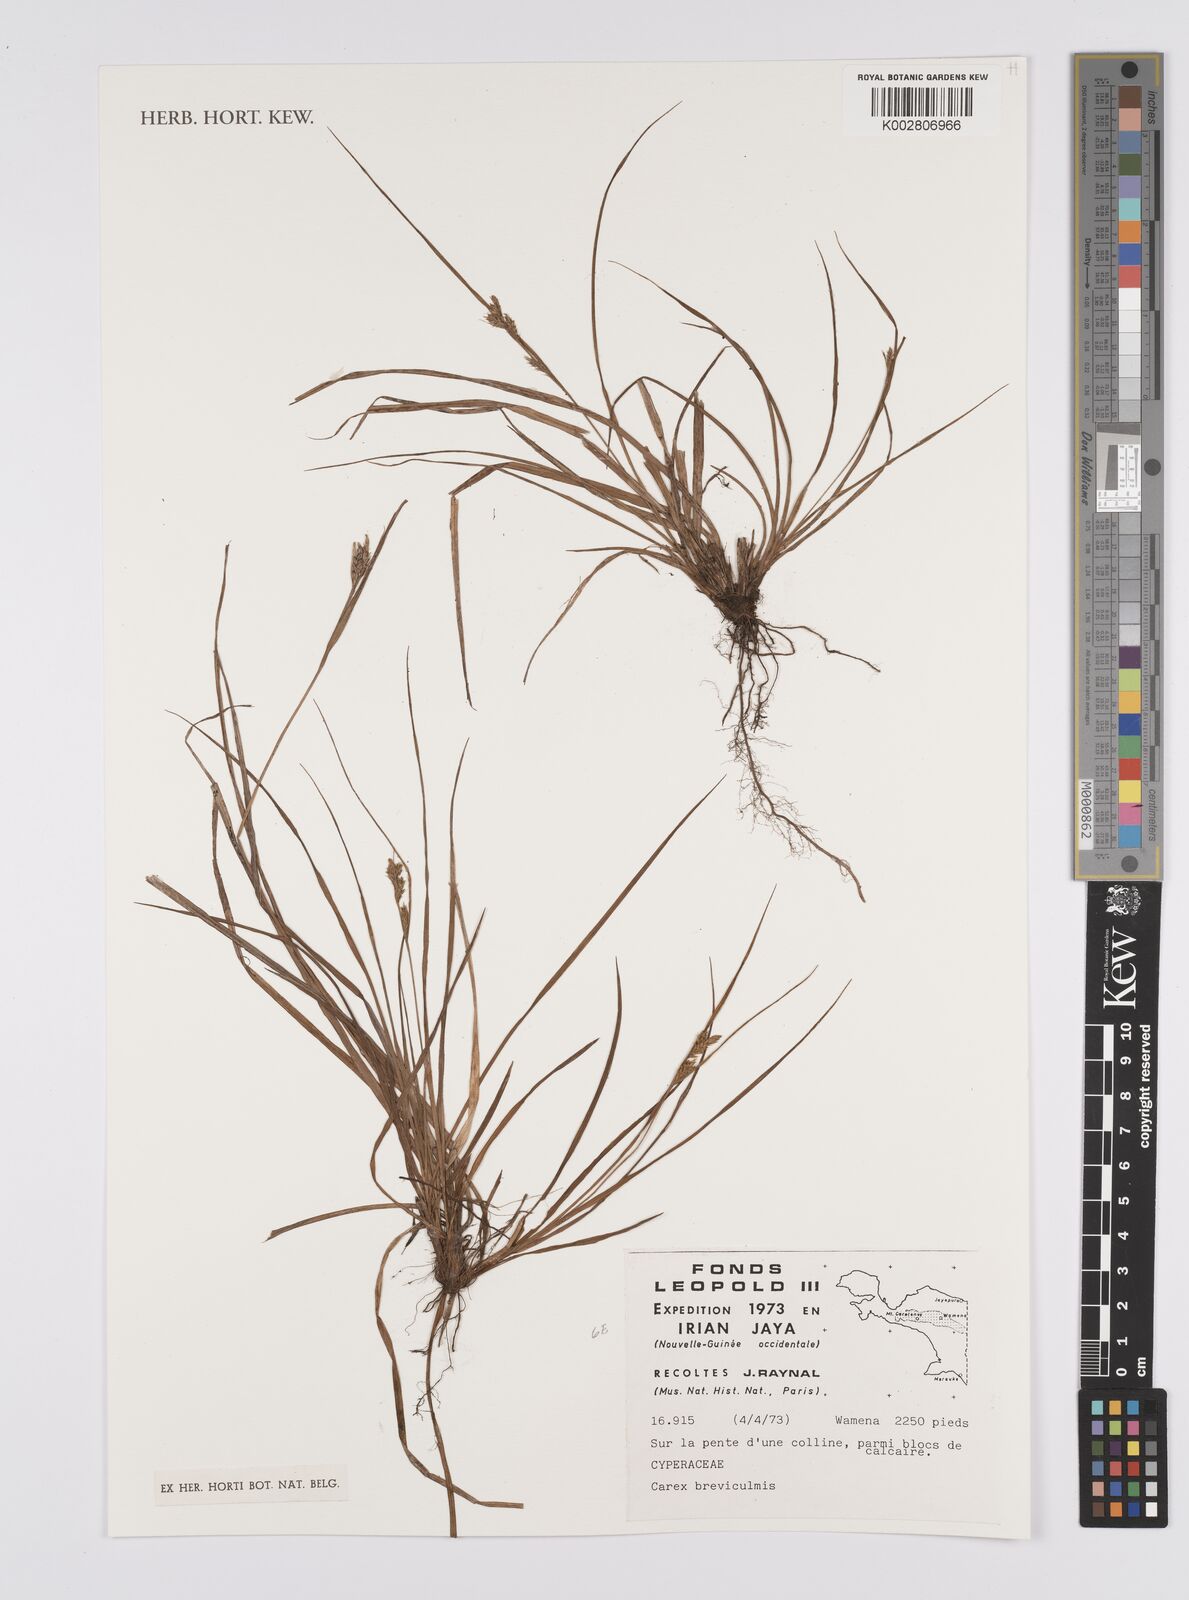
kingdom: Plantae
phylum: Tracheophyta
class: Liliopsida
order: Poales
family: Cyperaceae
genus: Carex
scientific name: Carex breviculmis
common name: Asian shortstem sedge
